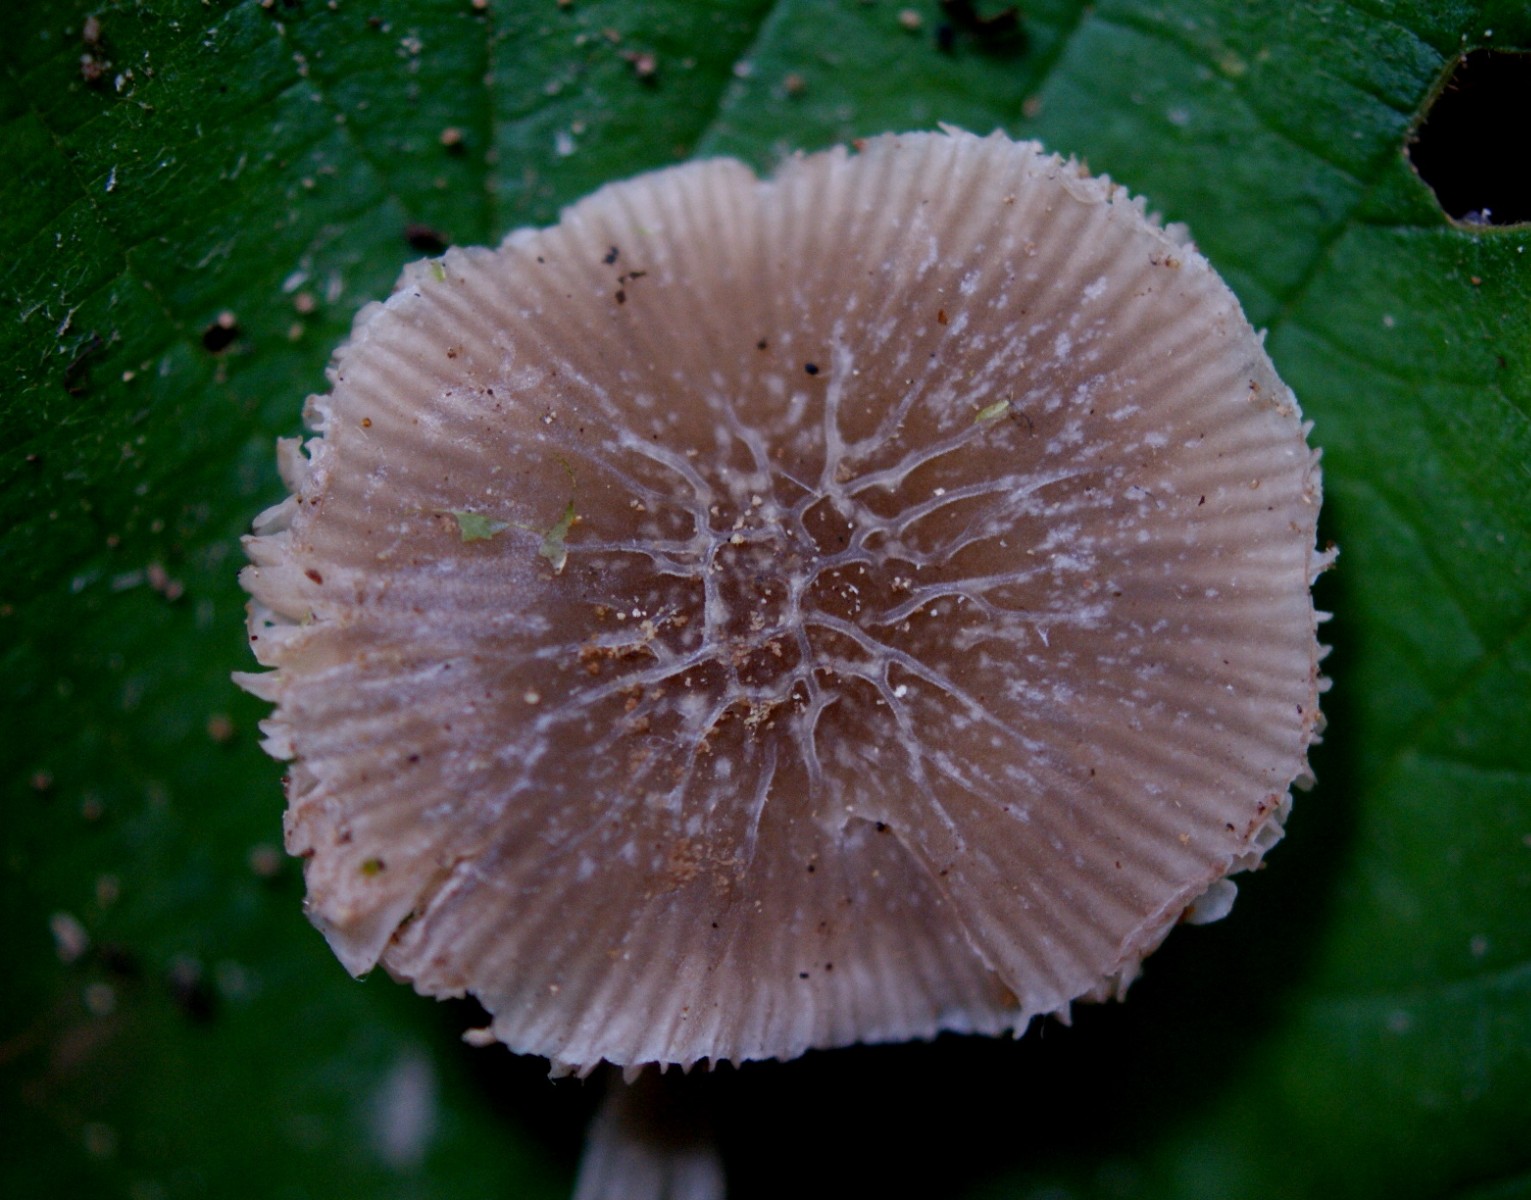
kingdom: Fungi
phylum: Basidiomycota
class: Agaricomycetes
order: Agaricales
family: Pluteaceae
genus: Pluteus
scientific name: Pluteus
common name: gråstokket skærmhat
